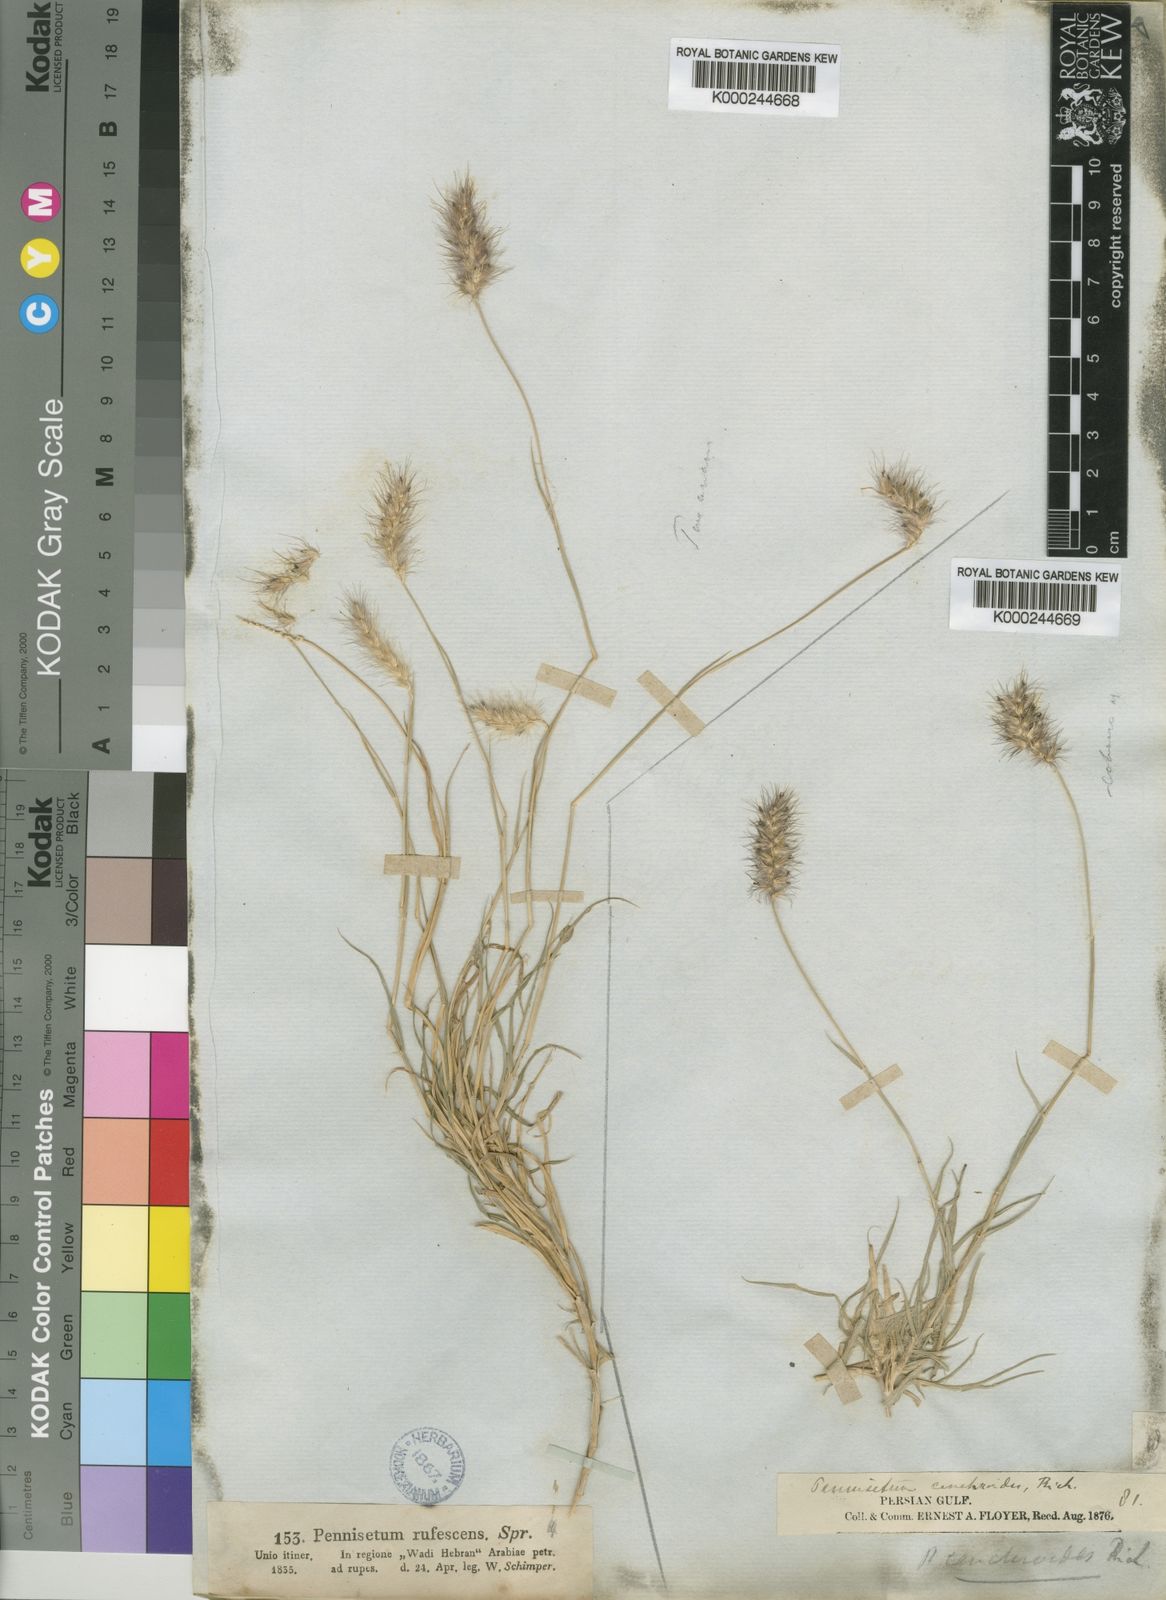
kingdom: Plantae
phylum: Tracheophyta
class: Liliopsida
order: Poales
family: Poaceae
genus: Cenchrus
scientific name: Cenchrus ciliaris
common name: Buffelgrass
